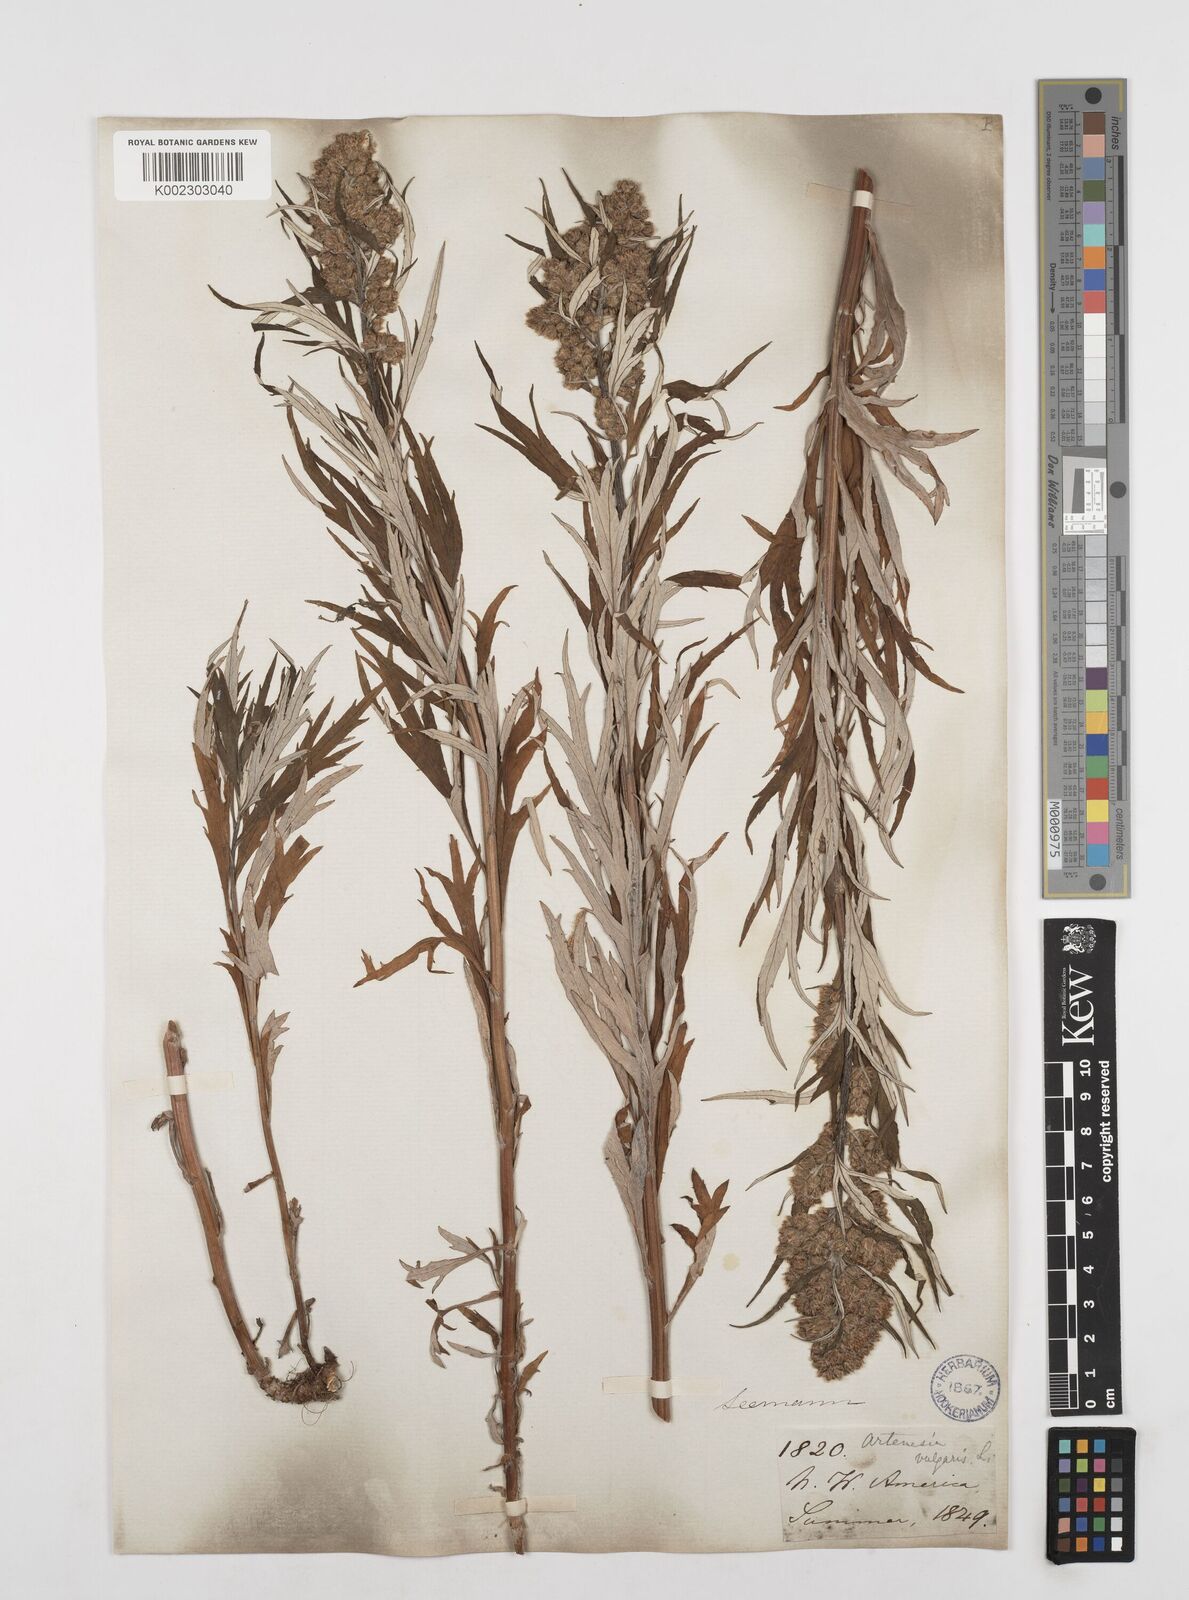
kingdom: Plantae
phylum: Tracheophyta
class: Magnoliopsida
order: Asterales
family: Asteraceae
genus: Artemisia
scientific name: Artemisia tilesii
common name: Aleutian mugwort
